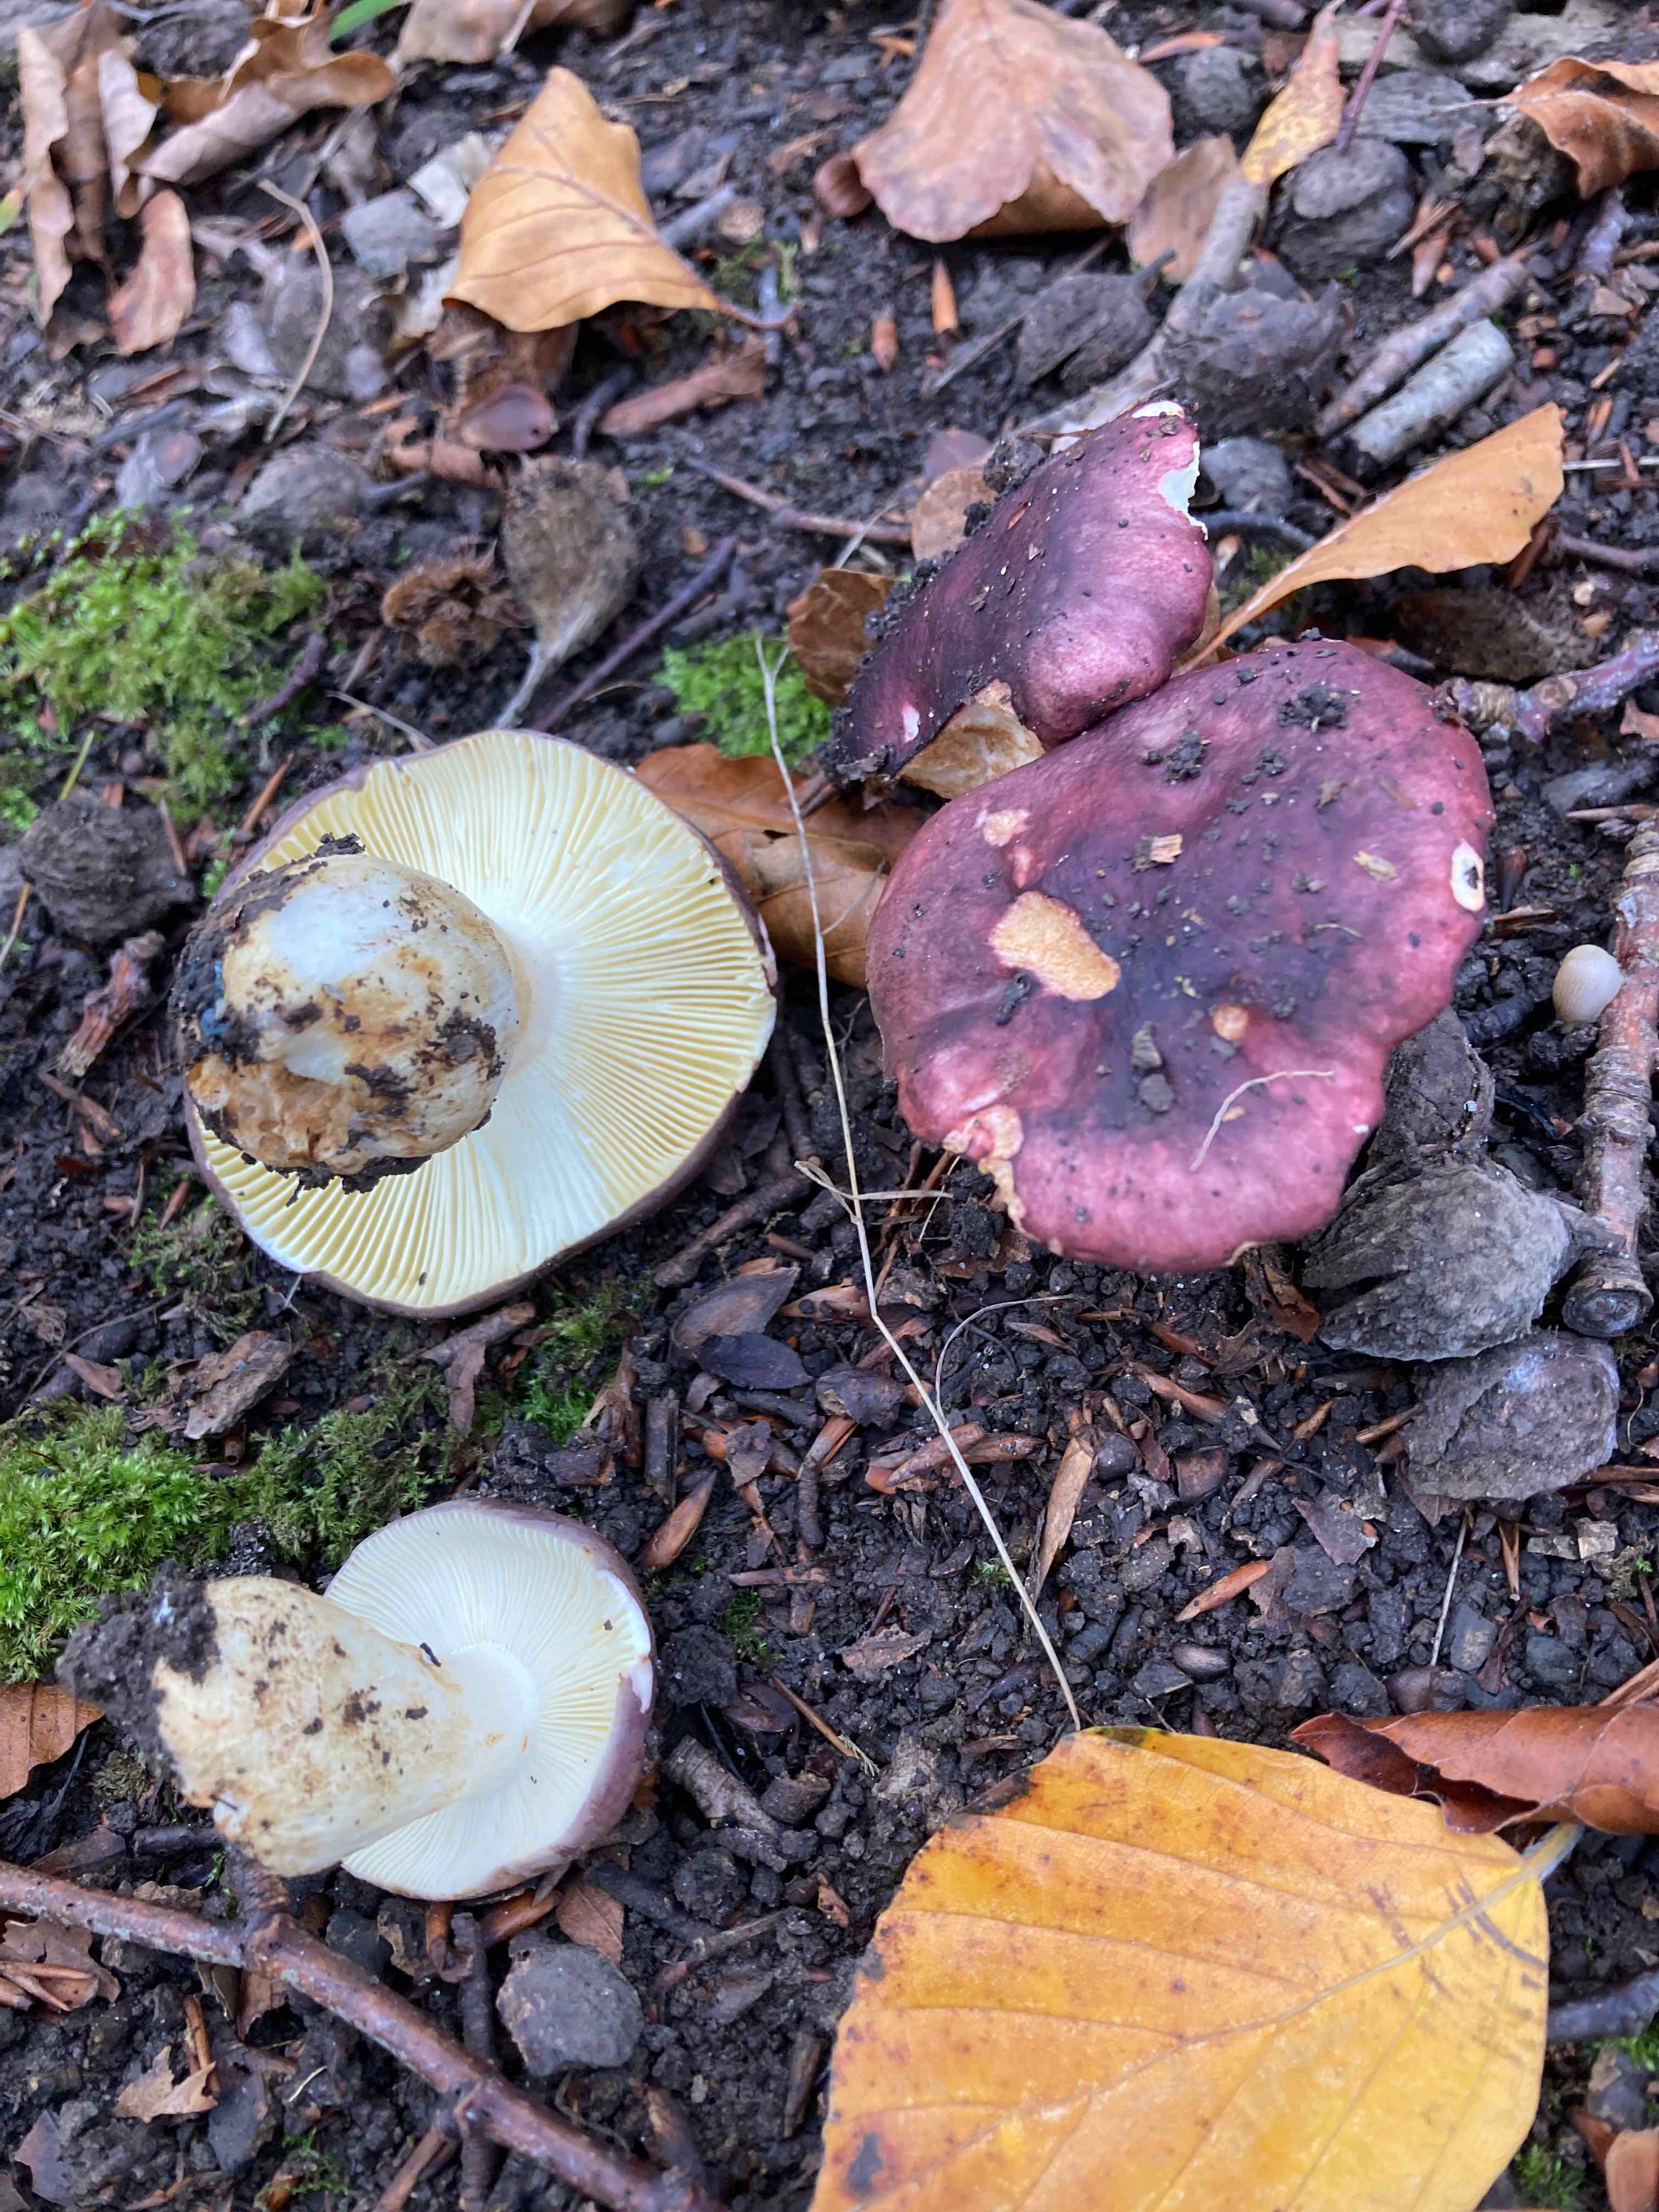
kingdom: Fungi
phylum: Basidiomycota
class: Agaricomycetes
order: Russulales
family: Russulaceae
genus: Russula
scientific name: Russula viscida
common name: knippe-skørhat
